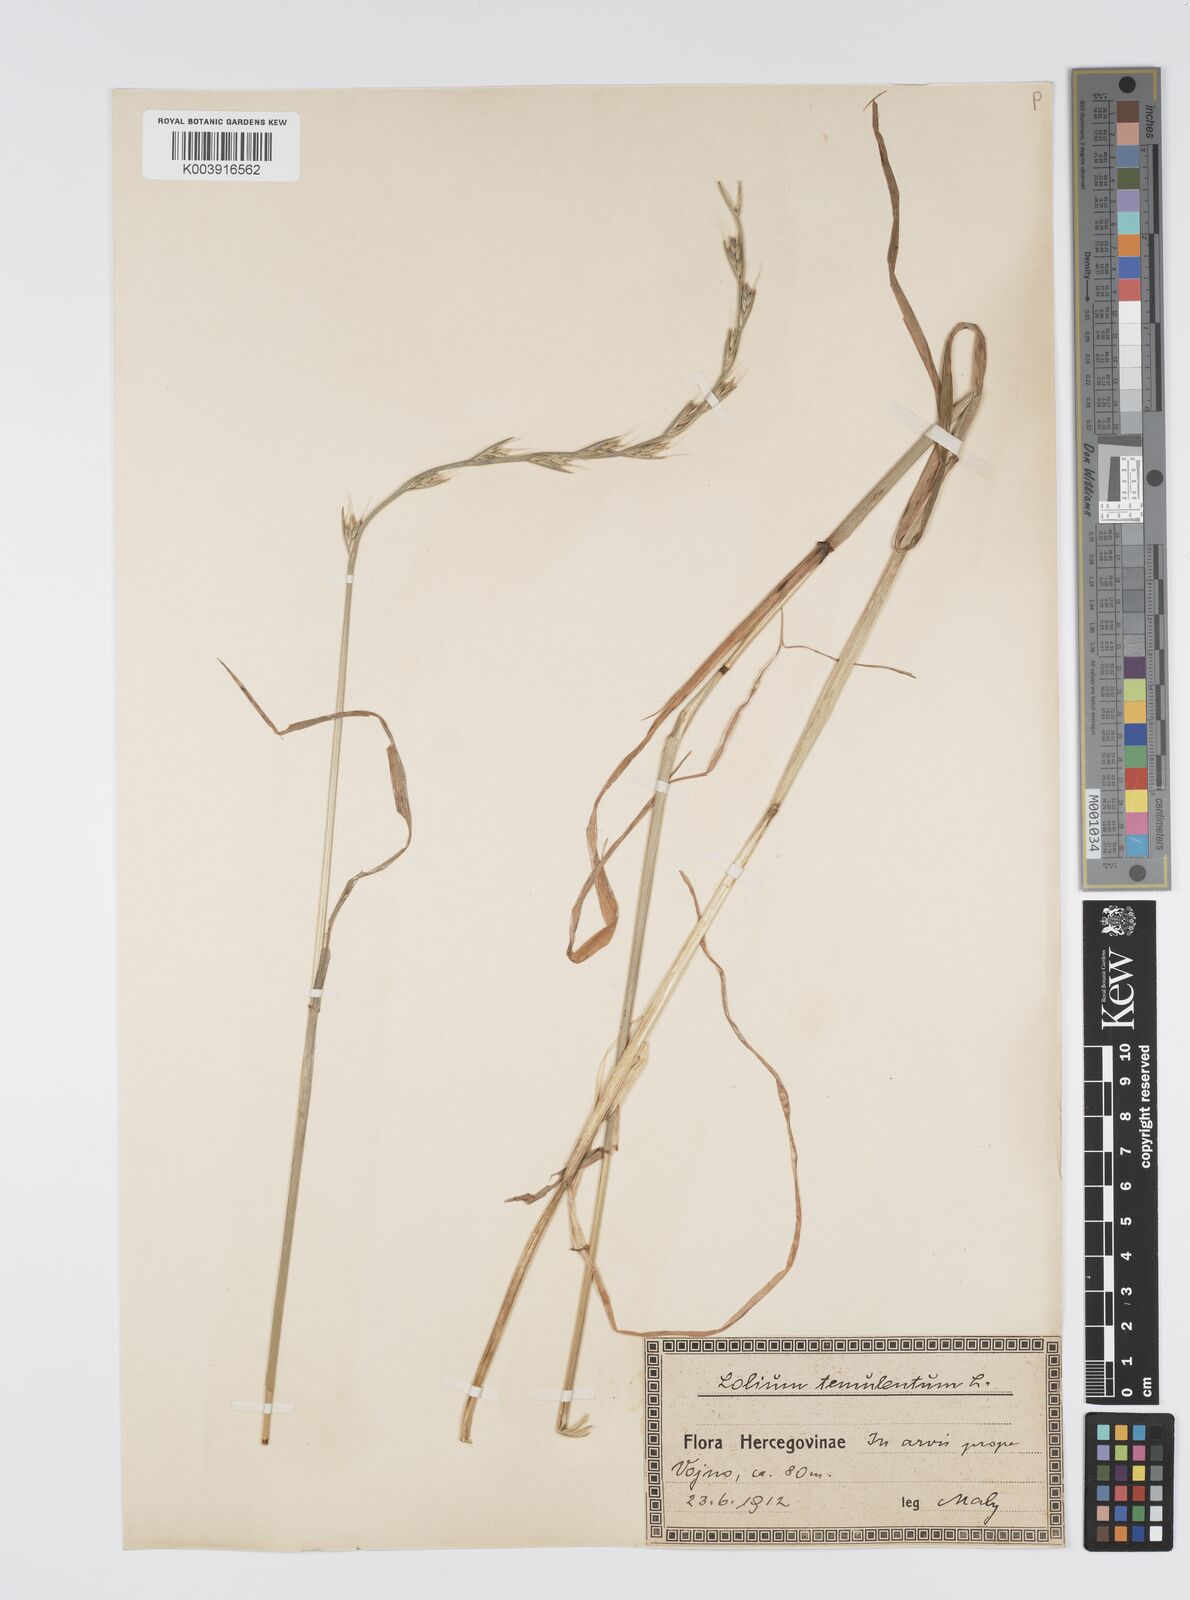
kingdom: Plantae
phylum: Tracheophyta
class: Liliopsida
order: Poales
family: Poaceae
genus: Lolium
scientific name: Lolium temulentum
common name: Darnel
